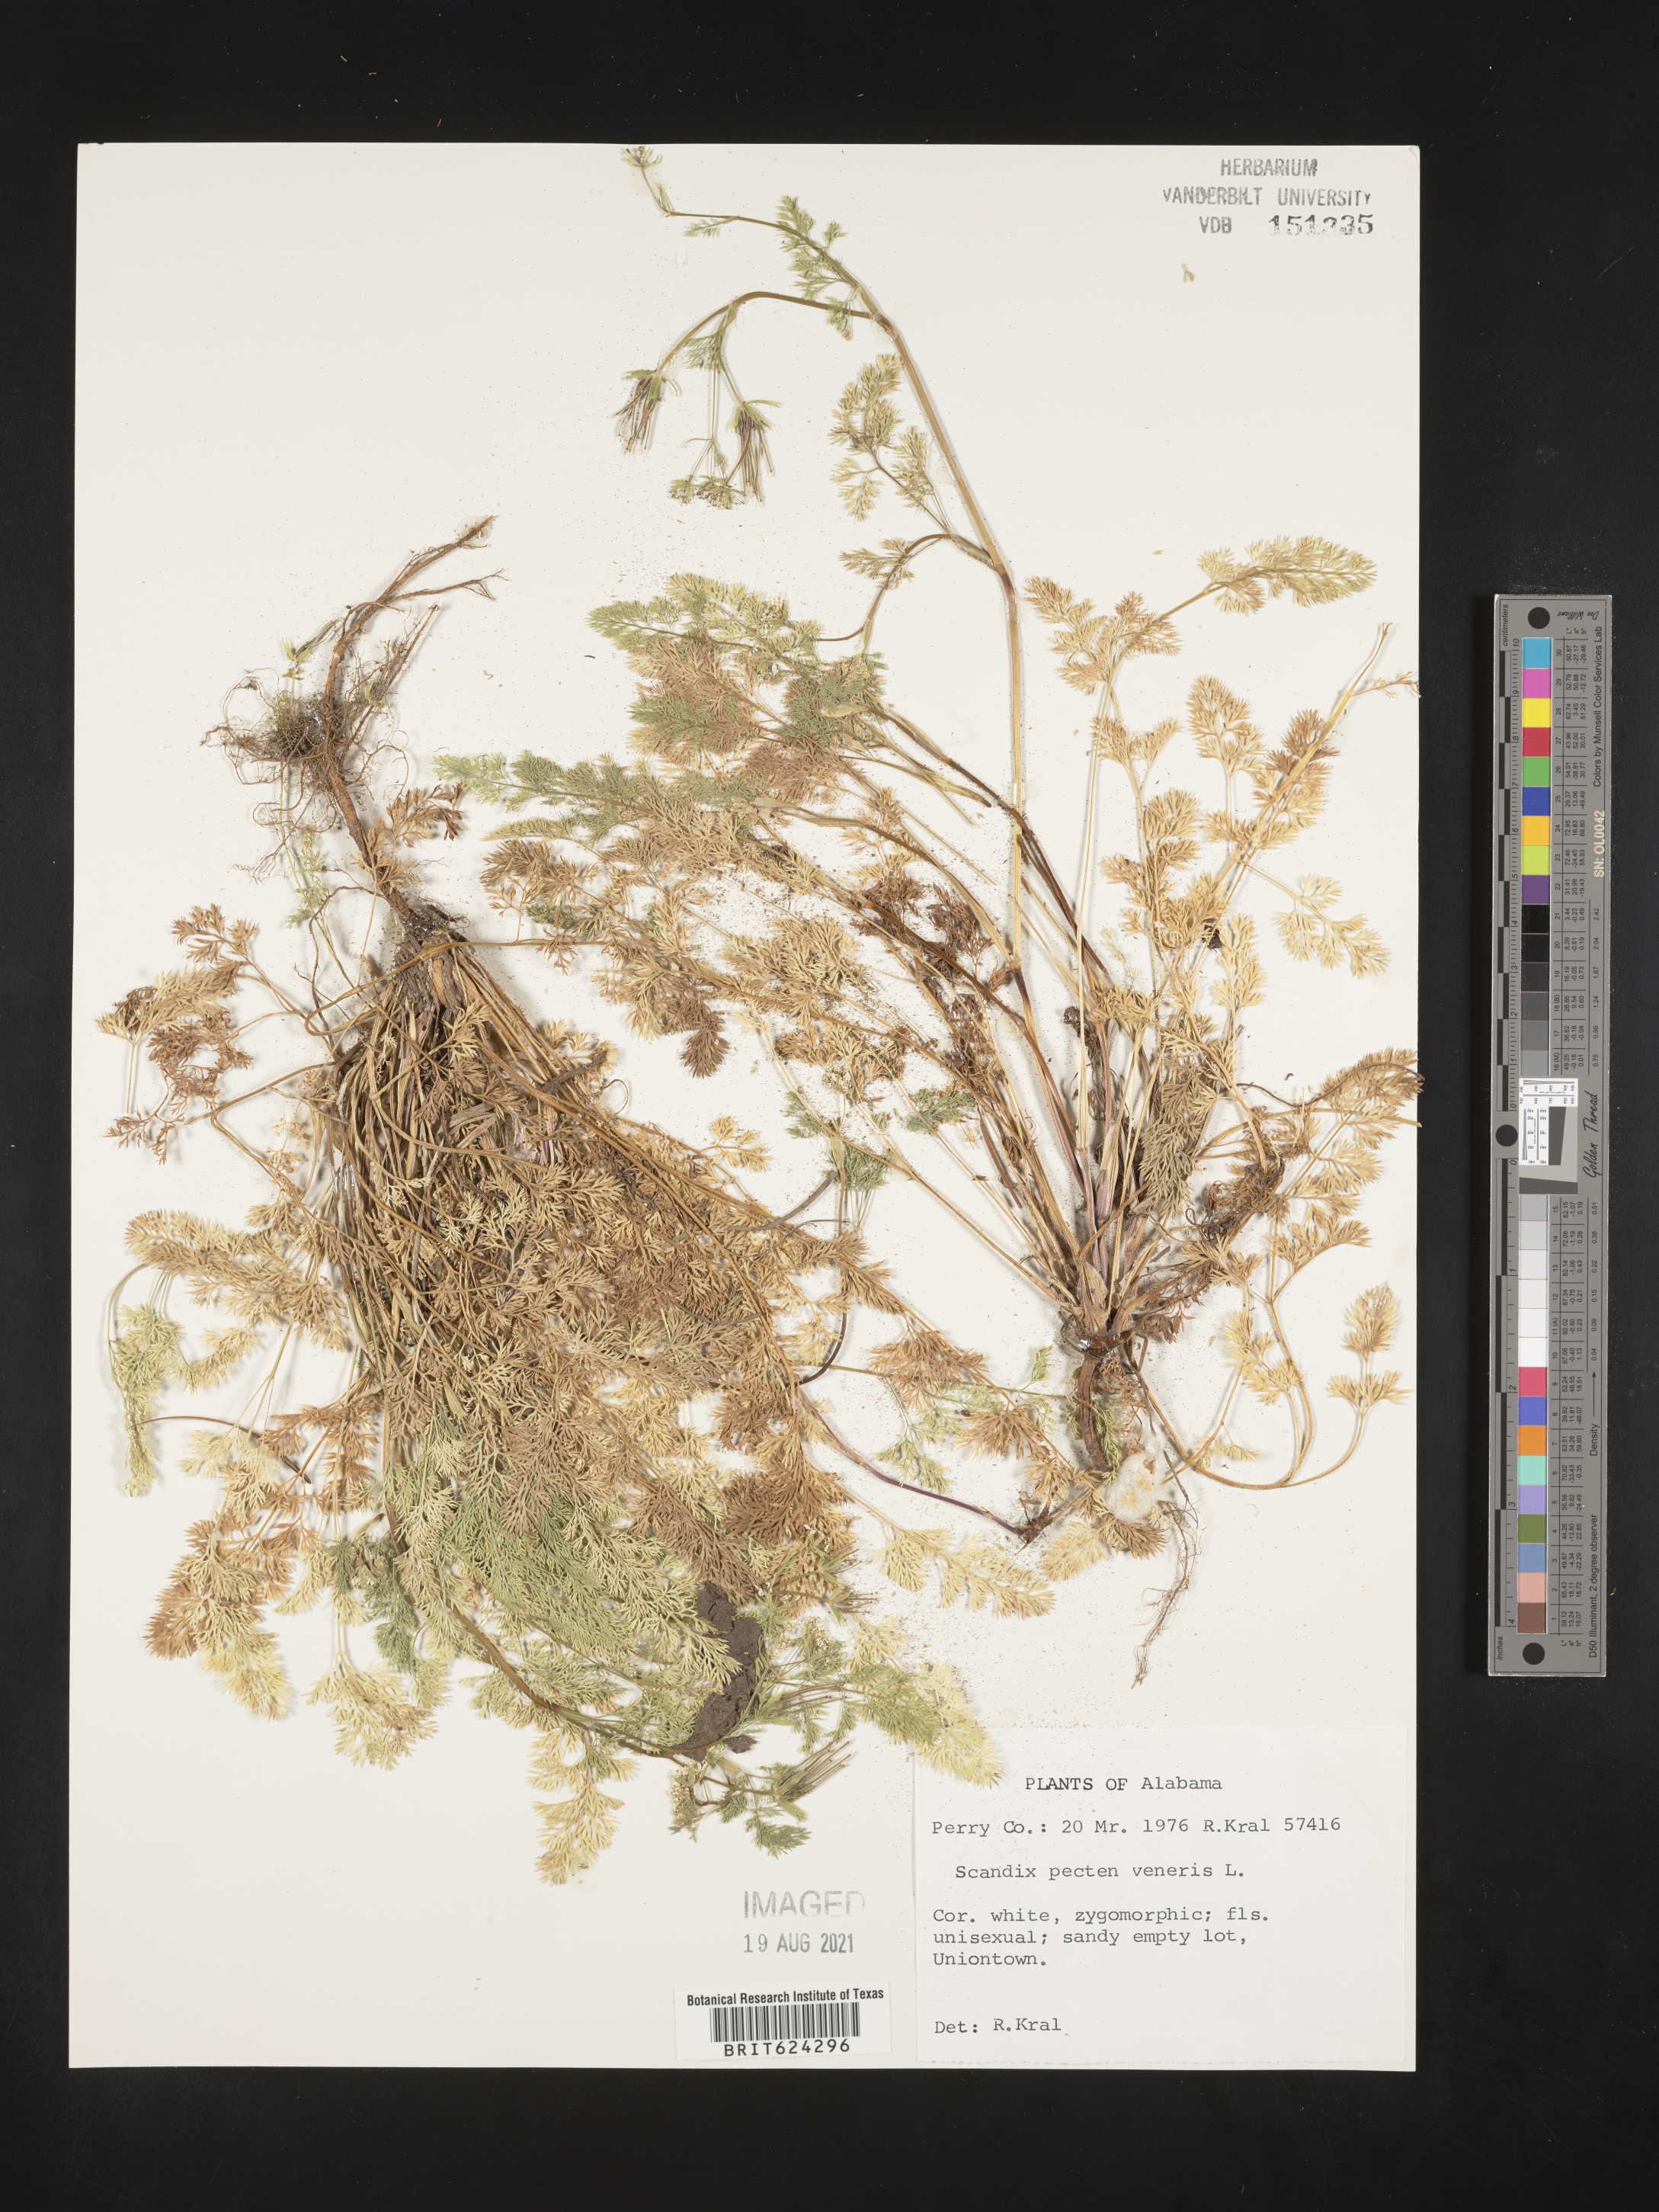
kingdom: Plantae
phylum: Tracheophyta
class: Magnoliopsida
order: Apiales
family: Apiaceae
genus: Scandix
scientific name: Scandix
